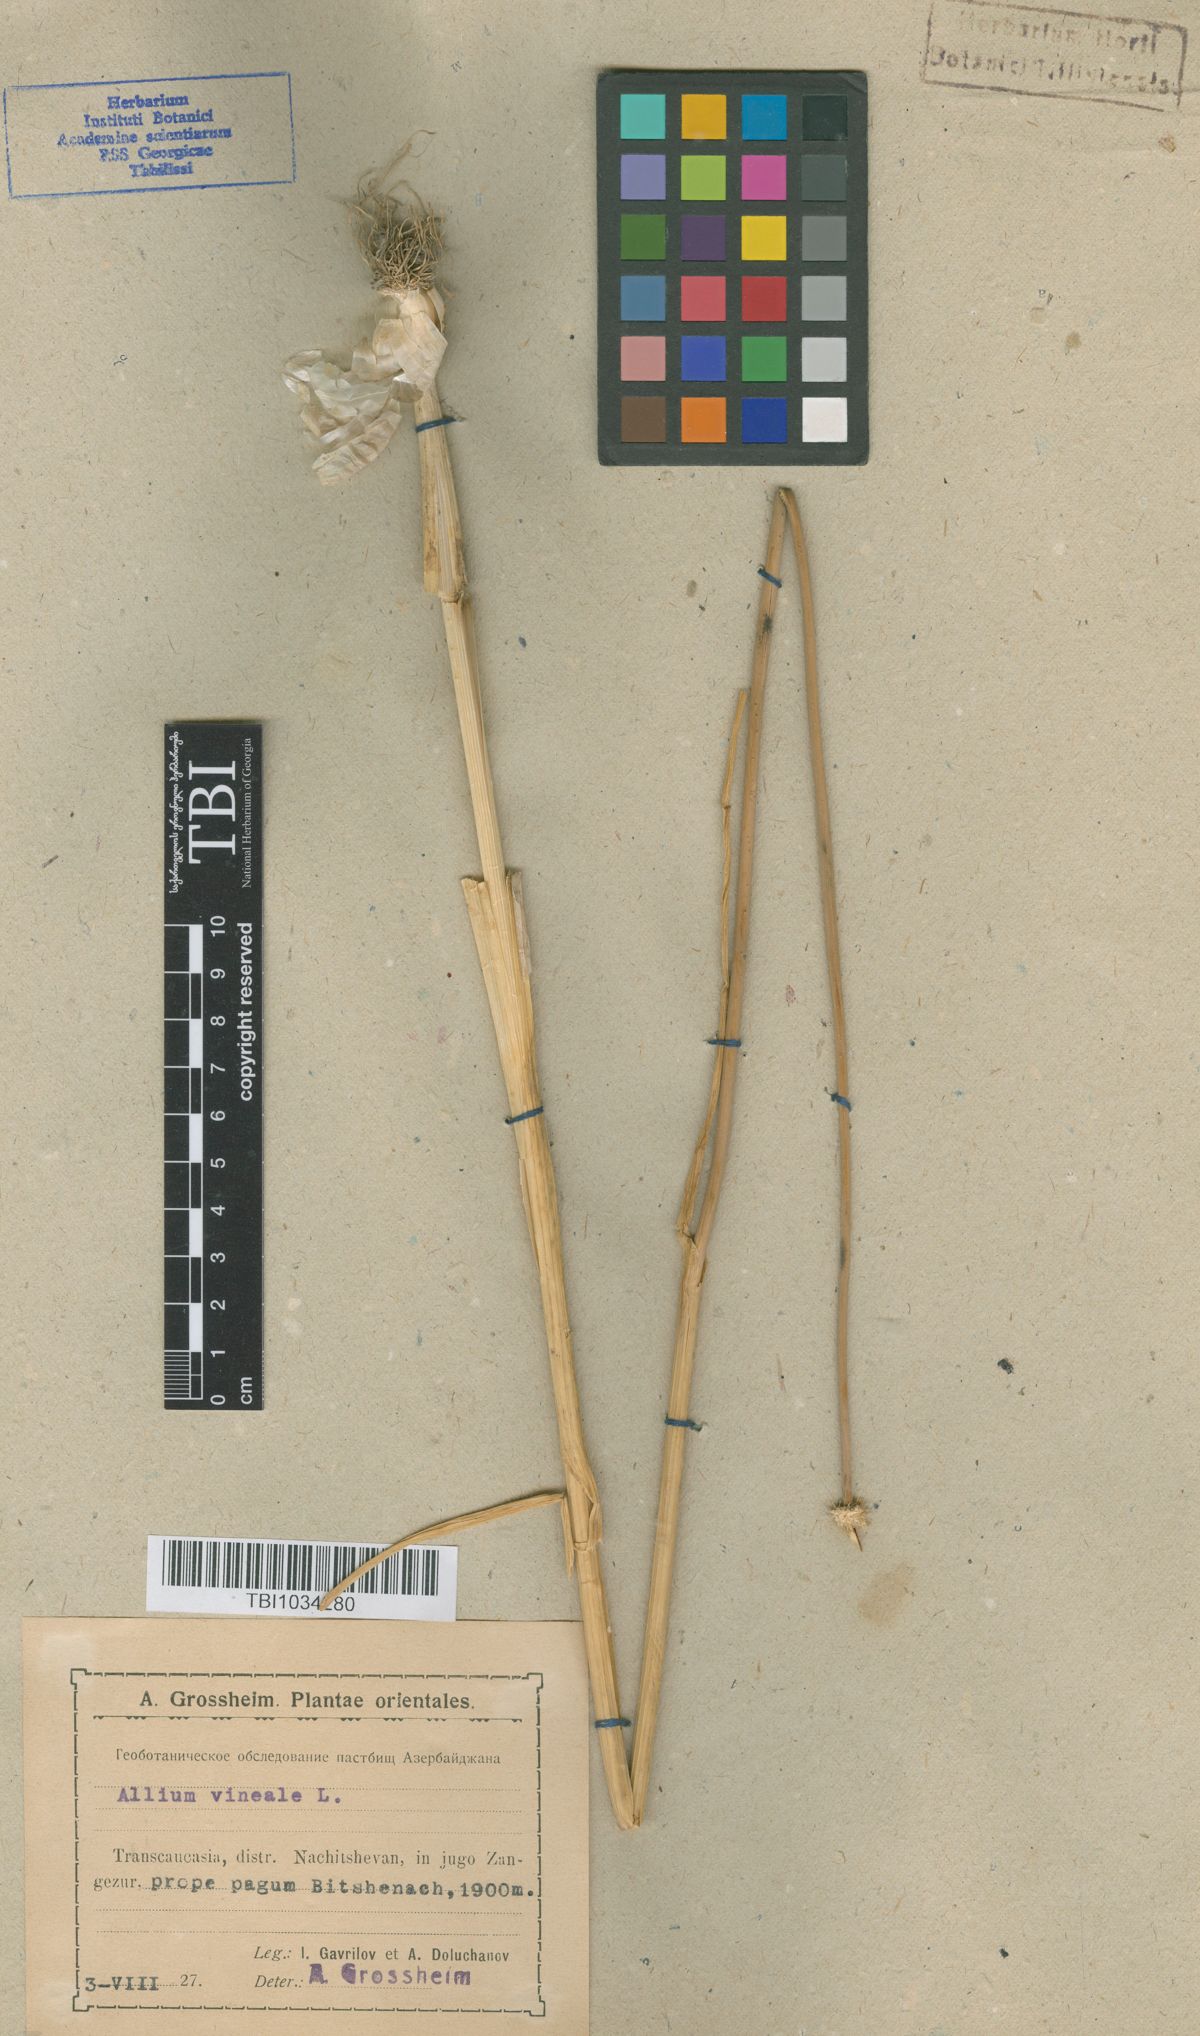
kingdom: Plantae
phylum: Tracheophyta
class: Liliopsida
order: Asparagales
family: Amaryllidaceae
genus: Allium
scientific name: Allium vineale
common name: Crow garlic
